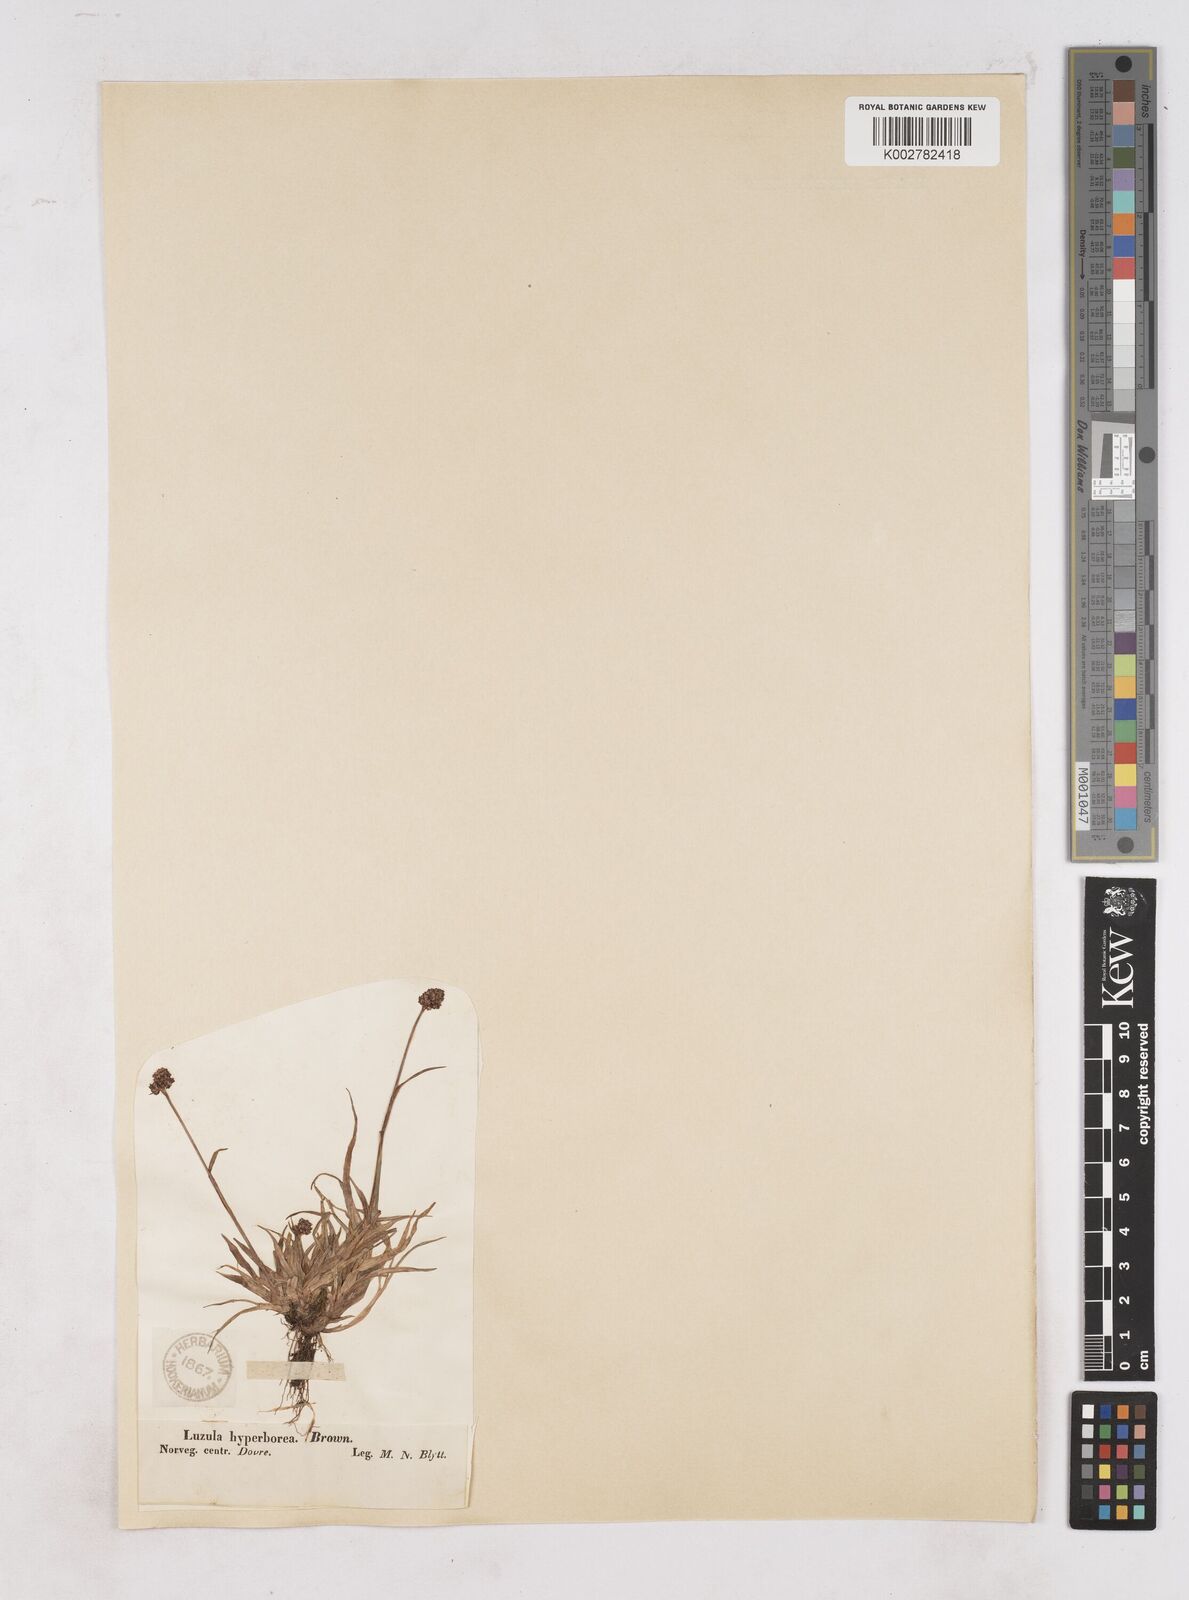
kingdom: Plantae
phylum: Tracheophyta
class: Liliopsida
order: Poales
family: Juncaceae
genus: Luzula
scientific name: Luzula nivalis
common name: Arctic woodrush
